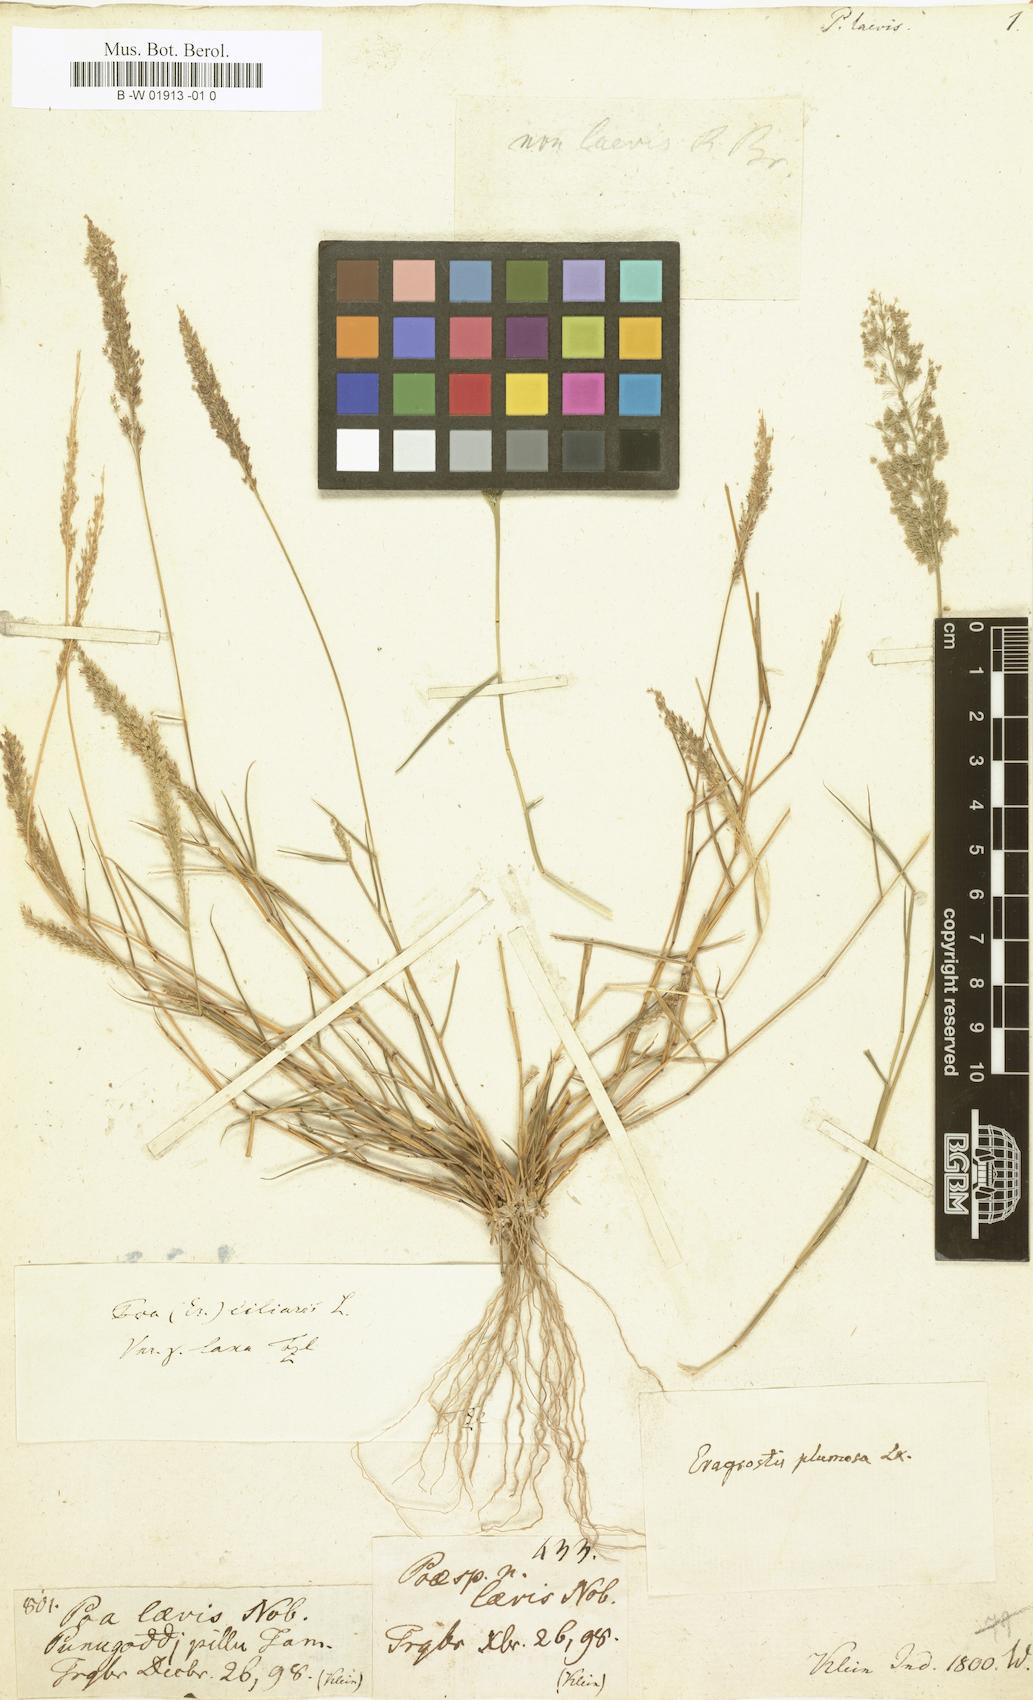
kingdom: Plantae
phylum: Tracheophyta
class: Liliopsida
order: Poales
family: Poaceae
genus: Poa
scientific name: Poa
